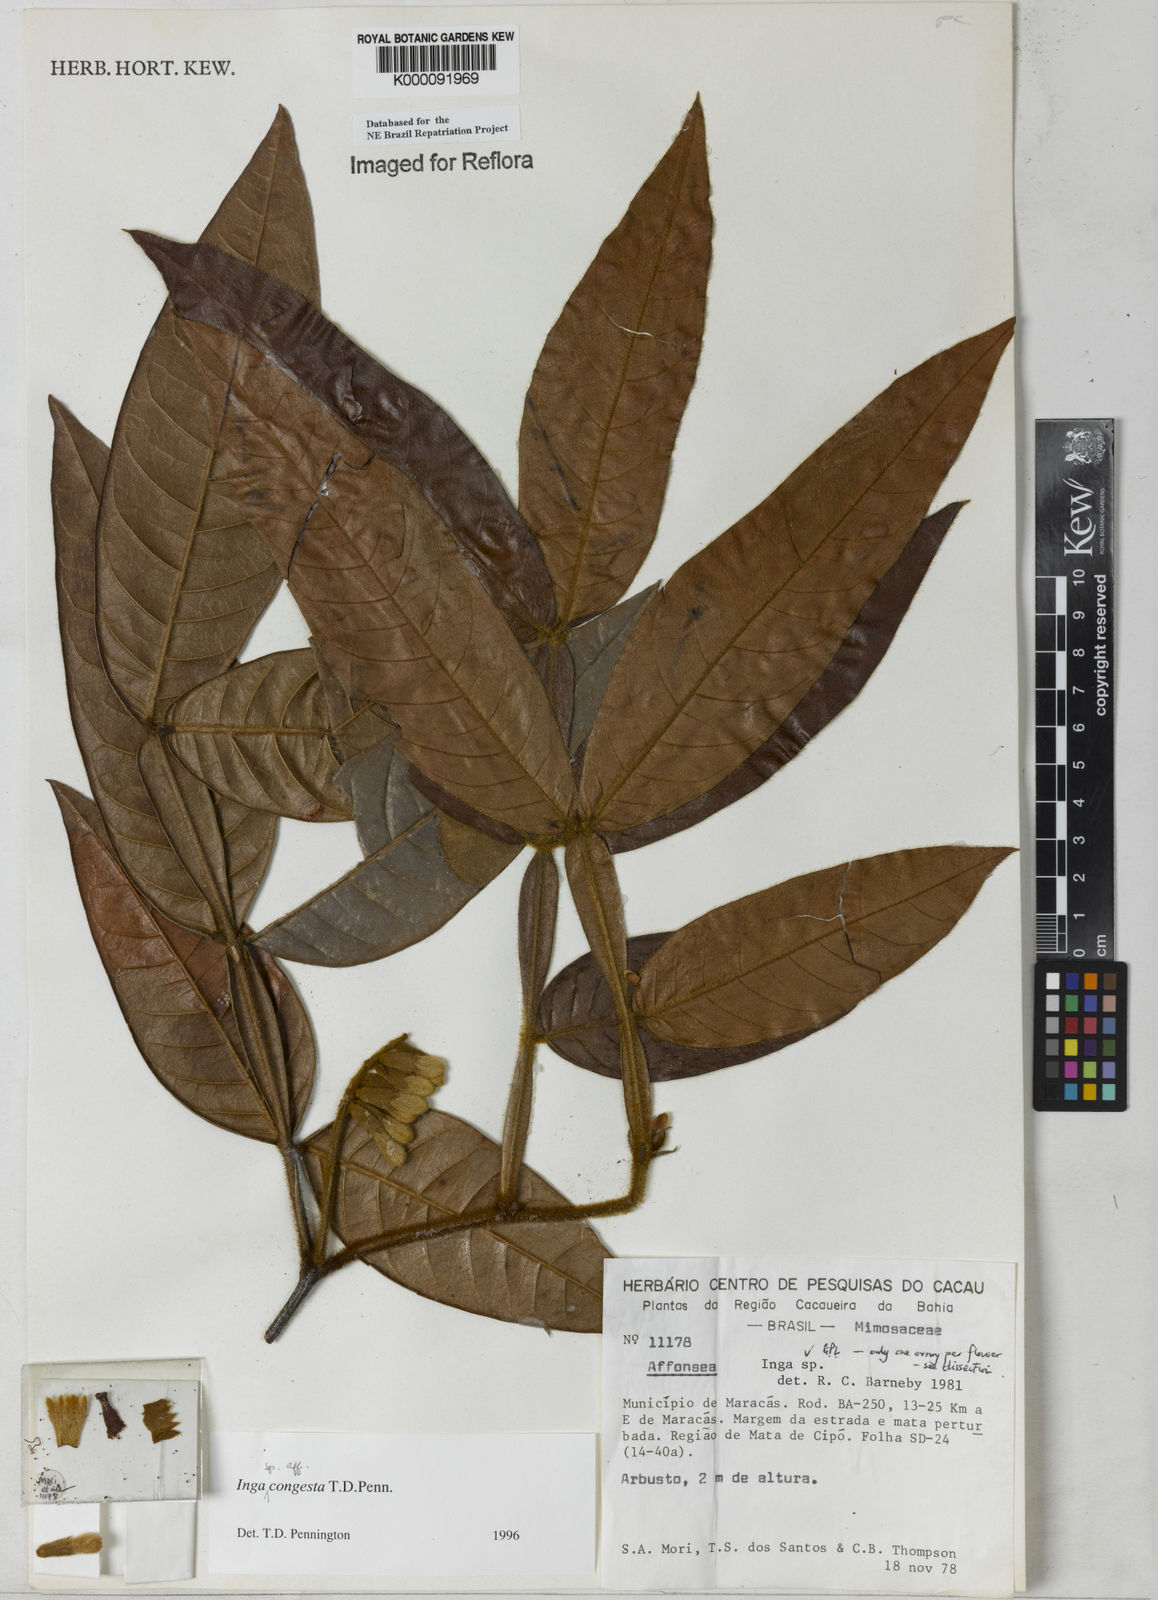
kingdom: Plantae
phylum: Tracheophyta
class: Magnoliopsida
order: Fabales
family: Fabaceae
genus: Inga
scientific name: Inga congesta
